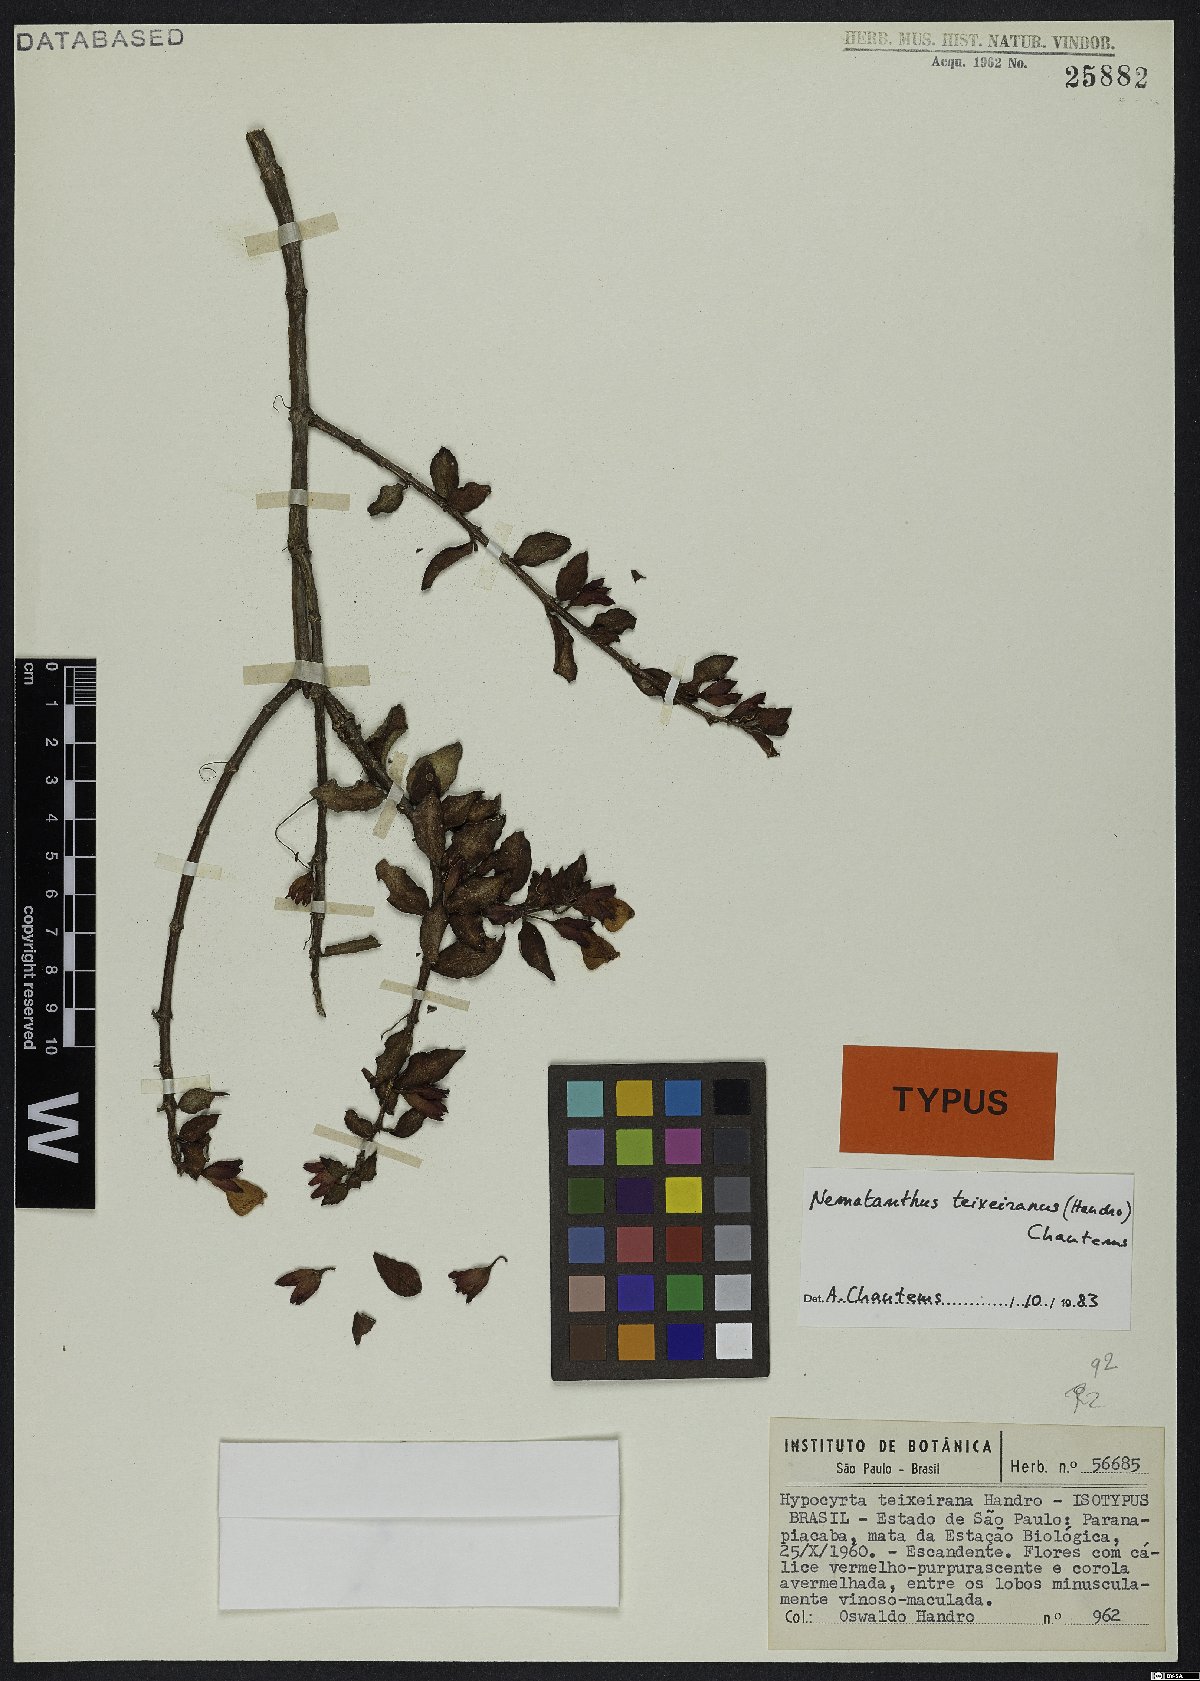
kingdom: Plantae
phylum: Tracheophyta
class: Magnoliopsida
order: Lamiales
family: Gesneriaceae
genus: Nematanthus
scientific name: Nematanthus teixeieranus
